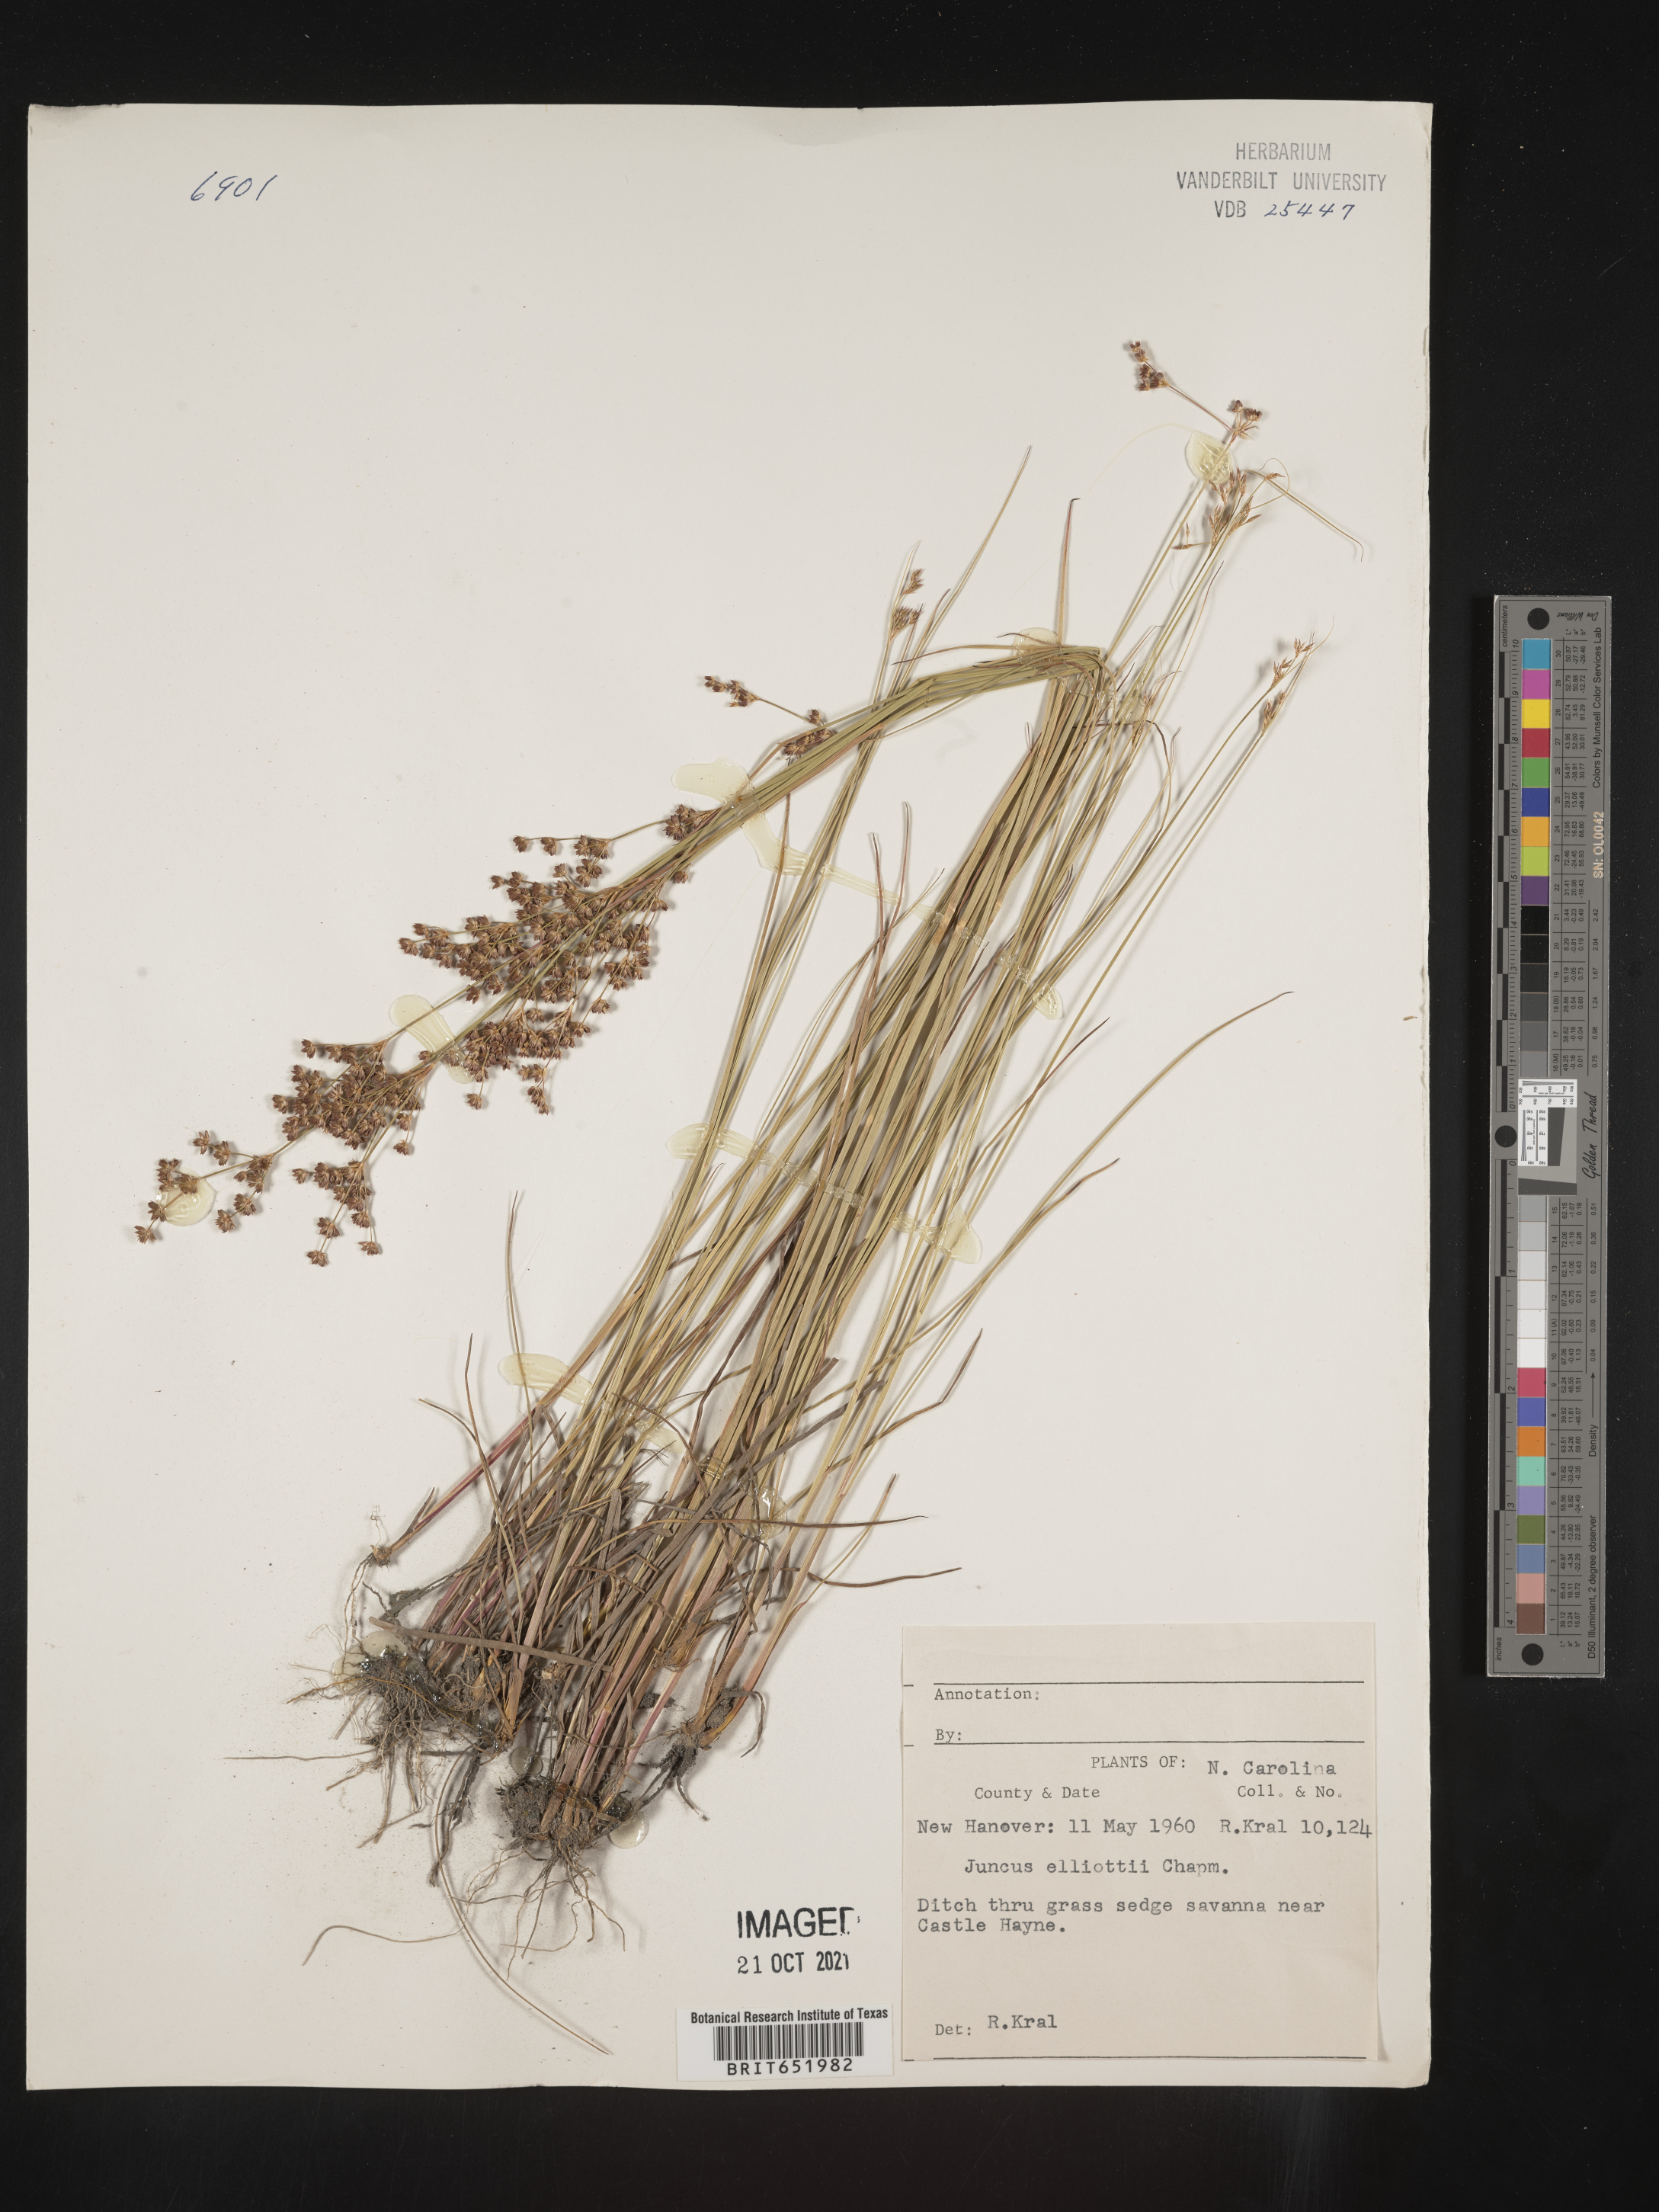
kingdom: Plantae
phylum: Tracheophyta
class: Liliopsida
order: Poales
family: Juncaceae
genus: Juncus
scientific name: Juncus elliottii
